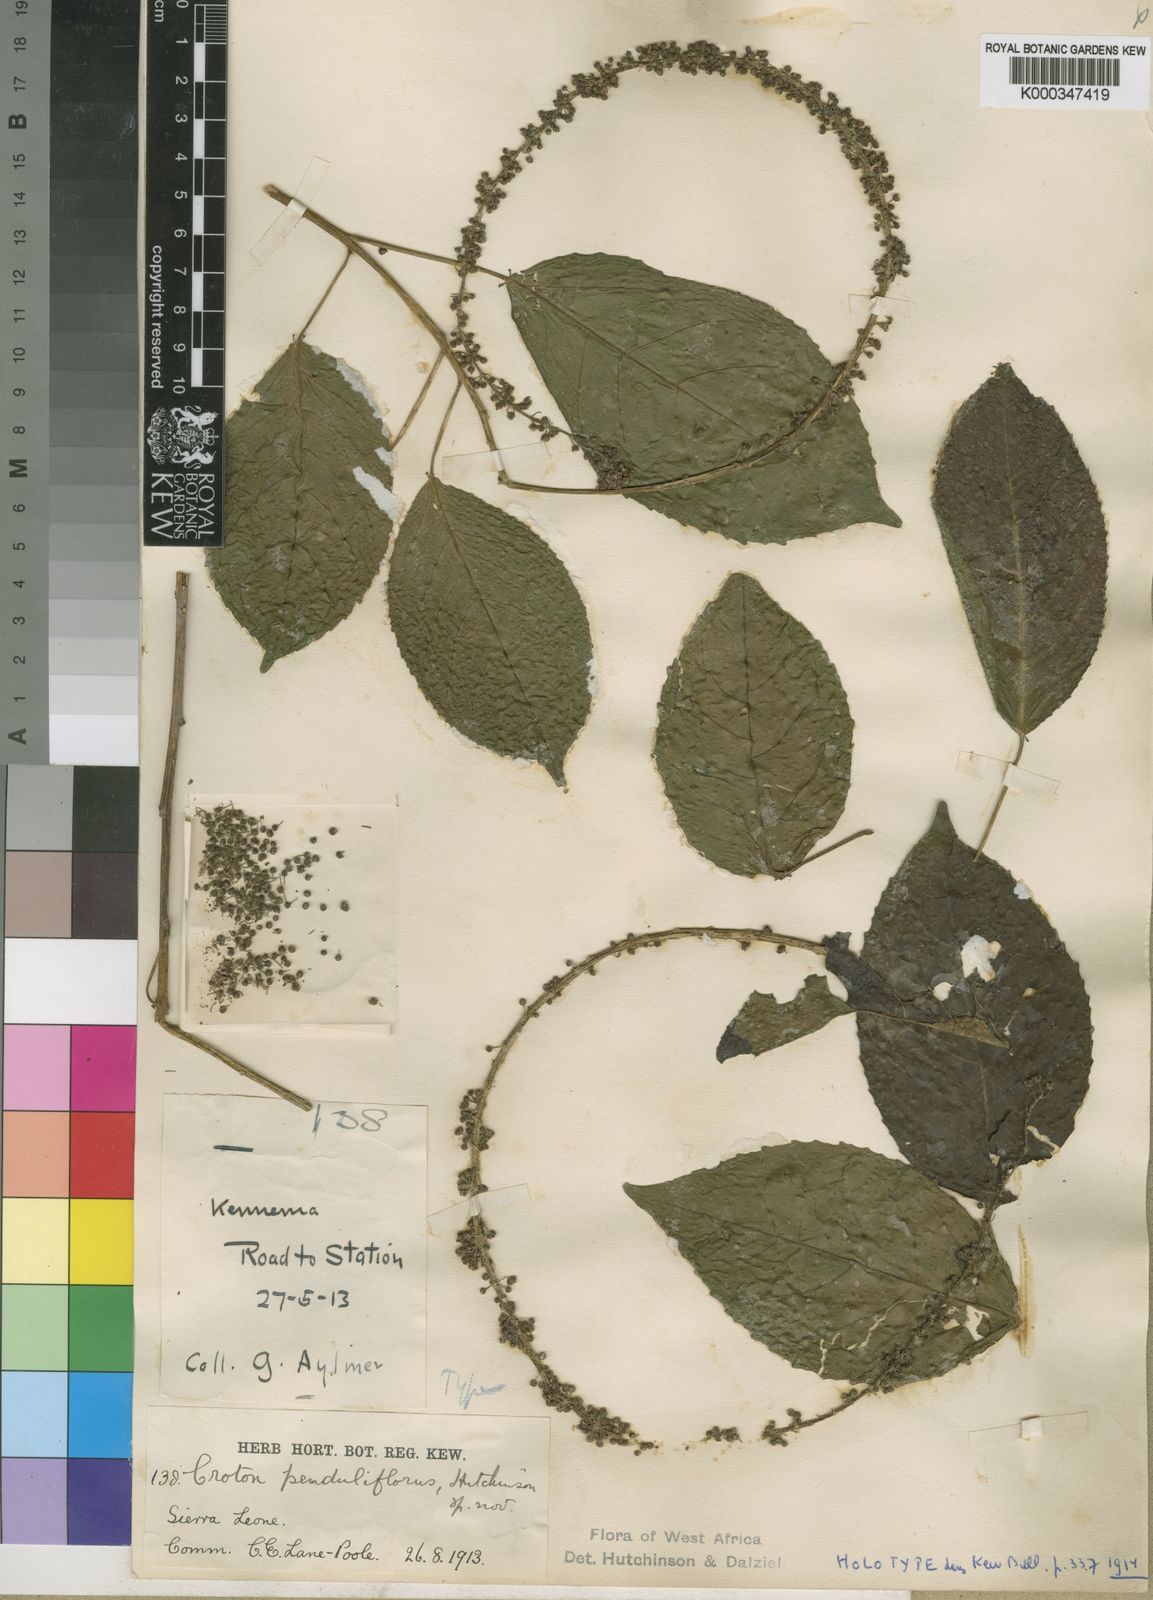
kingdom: Plantae
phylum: Tracheophyta
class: Magnoliopsida
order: Malpighiales
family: Euphorbiaceae
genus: Croton
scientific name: Croton penduliflorus
